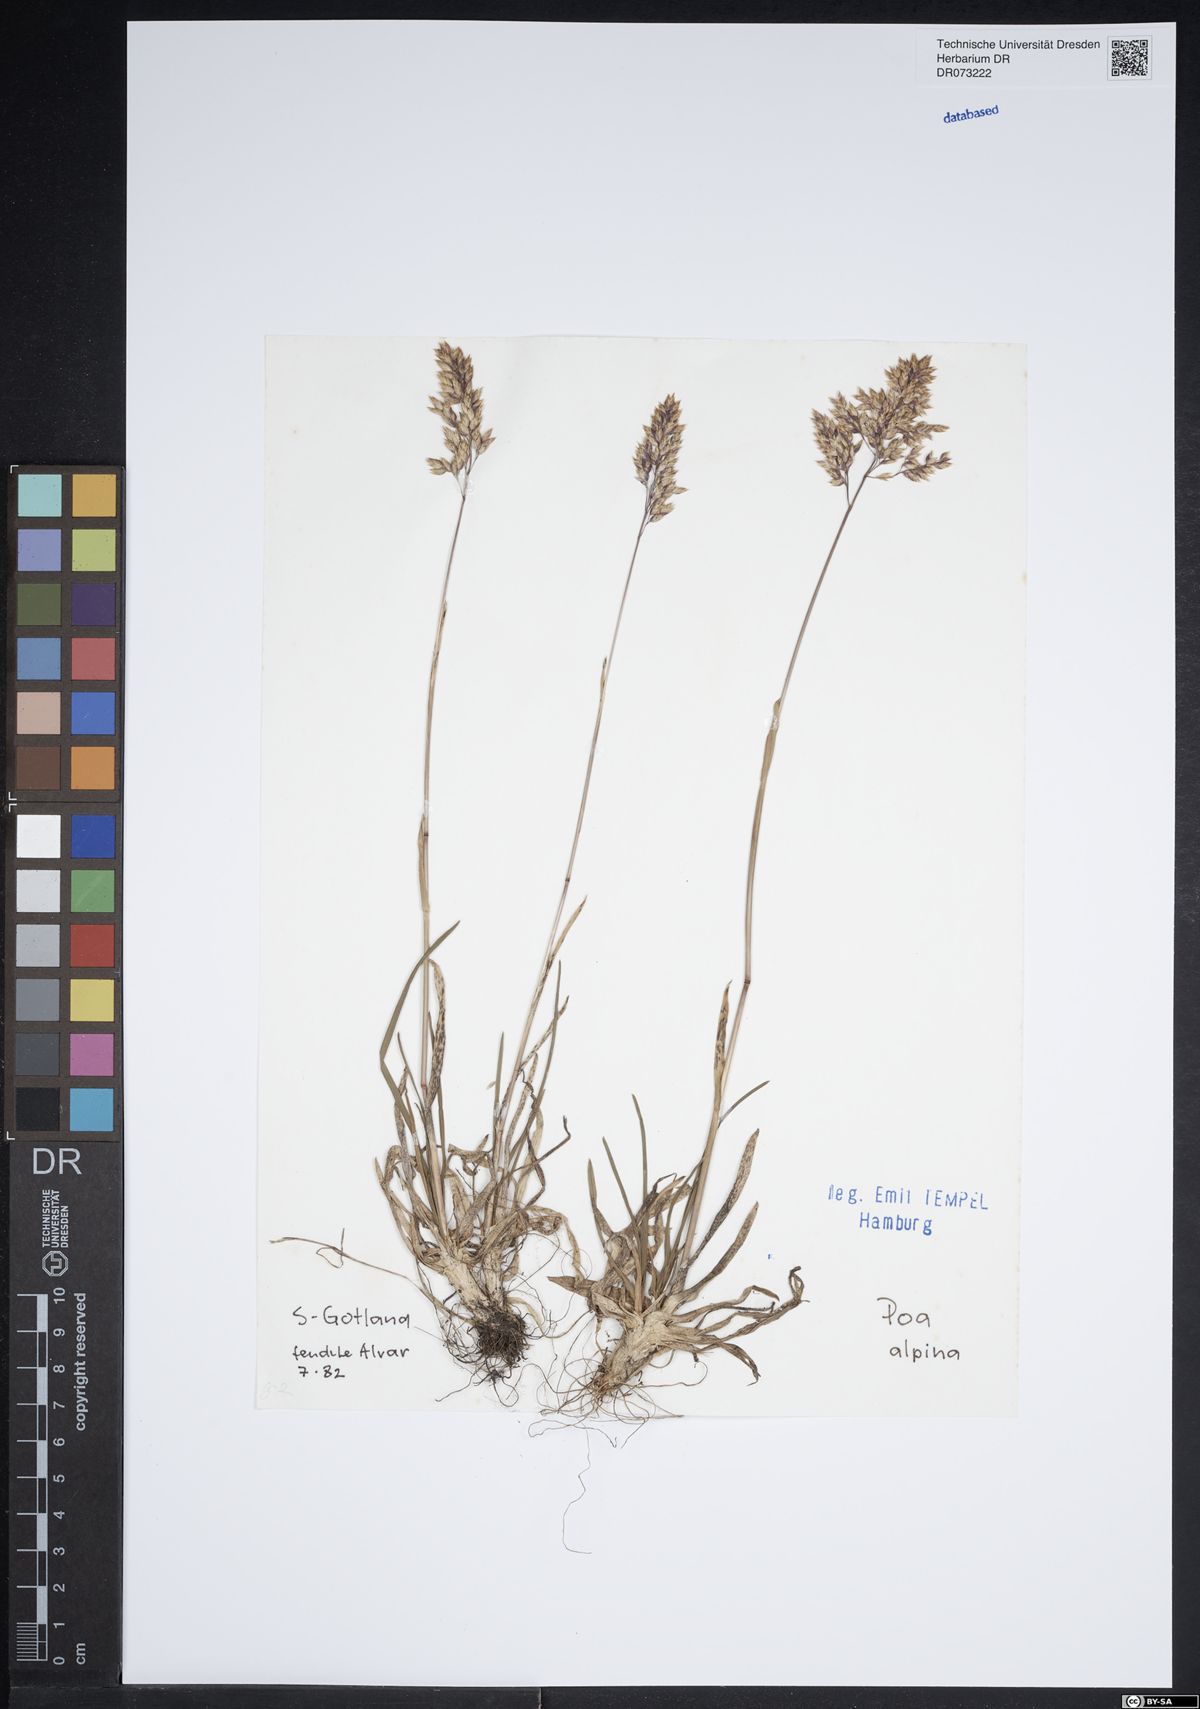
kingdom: Plantae
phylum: Tracheophyta
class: Liliopsida
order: Poales
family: Poaceae
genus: Poa
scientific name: Poa alpina
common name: Alpine bluegrass
